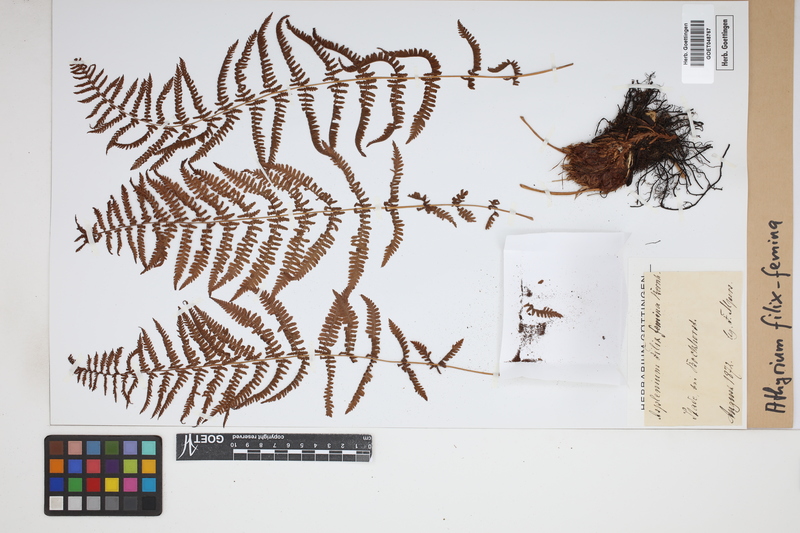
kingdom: Plantae
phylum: Tracheophyta
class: Polypodiopsida
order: Polypodiales
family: Athyriaceae
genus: Athyrium
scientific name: Athyrium filix-femina
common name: Lady fern
